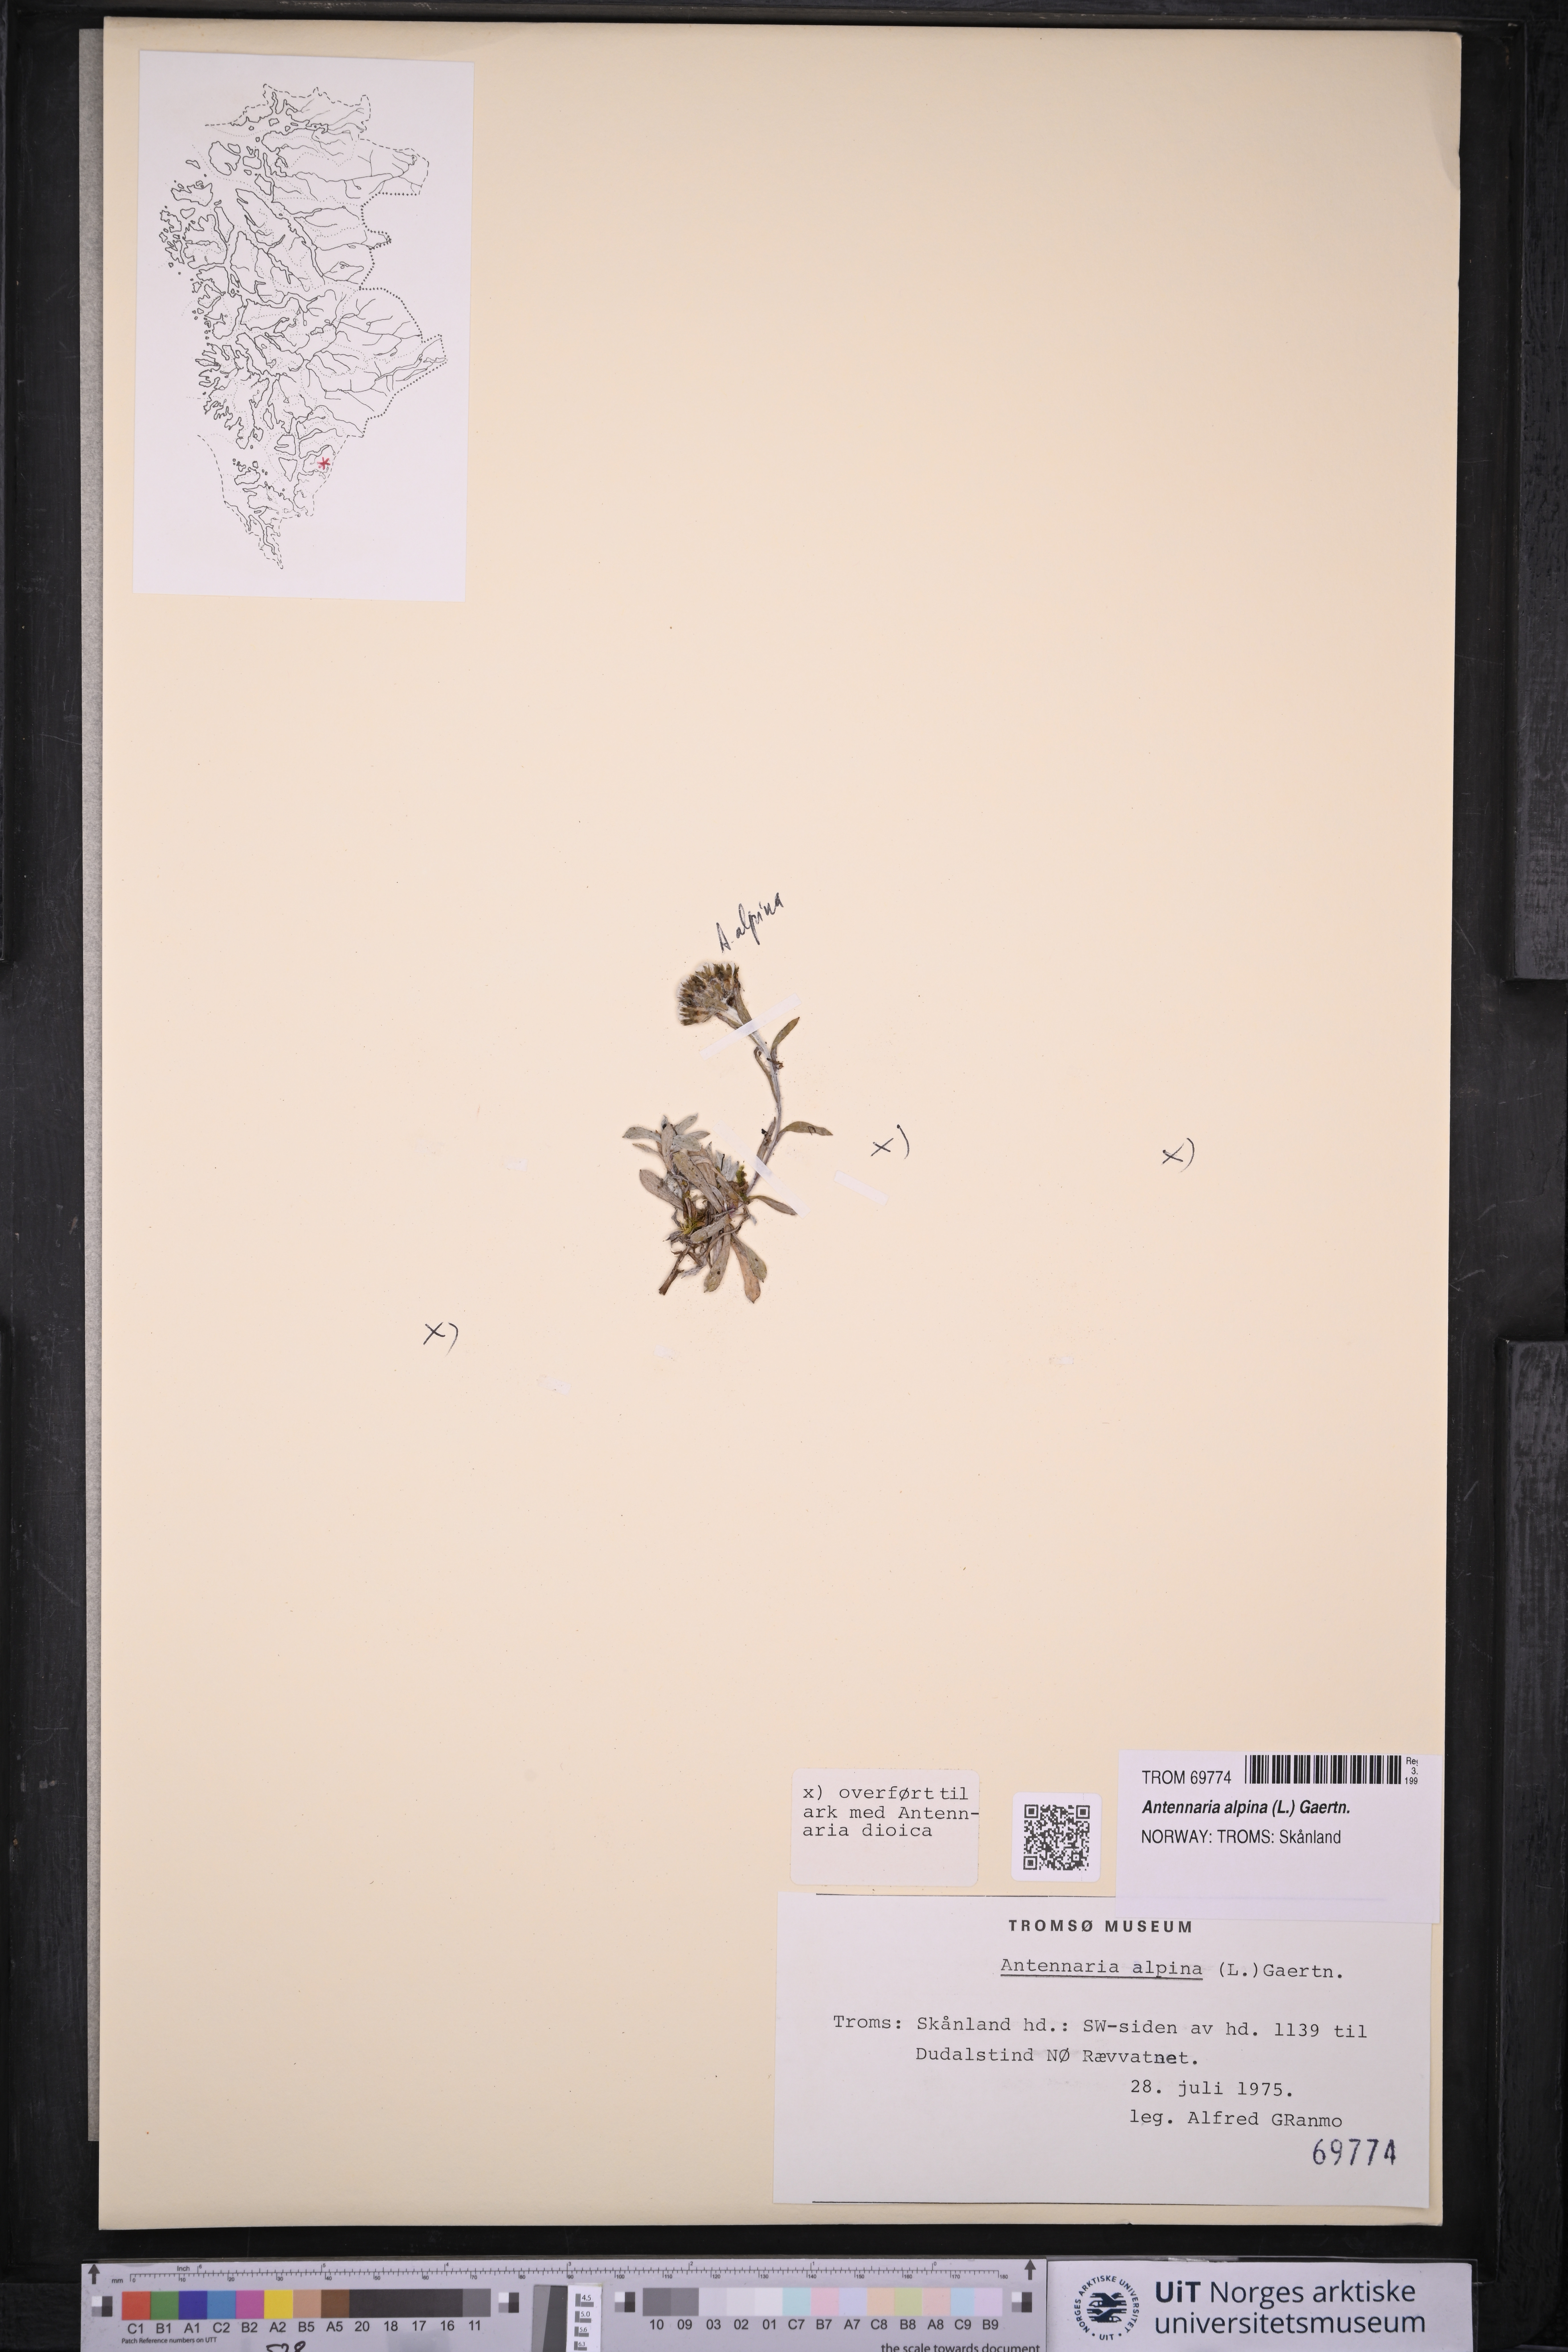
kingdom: Plantae
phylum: Tracheophyta
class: Magnoliopsida
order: Asterales
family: Asteraceae
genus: Antennaria
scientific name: Antennaria alpina
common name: Alpine pussytoes
